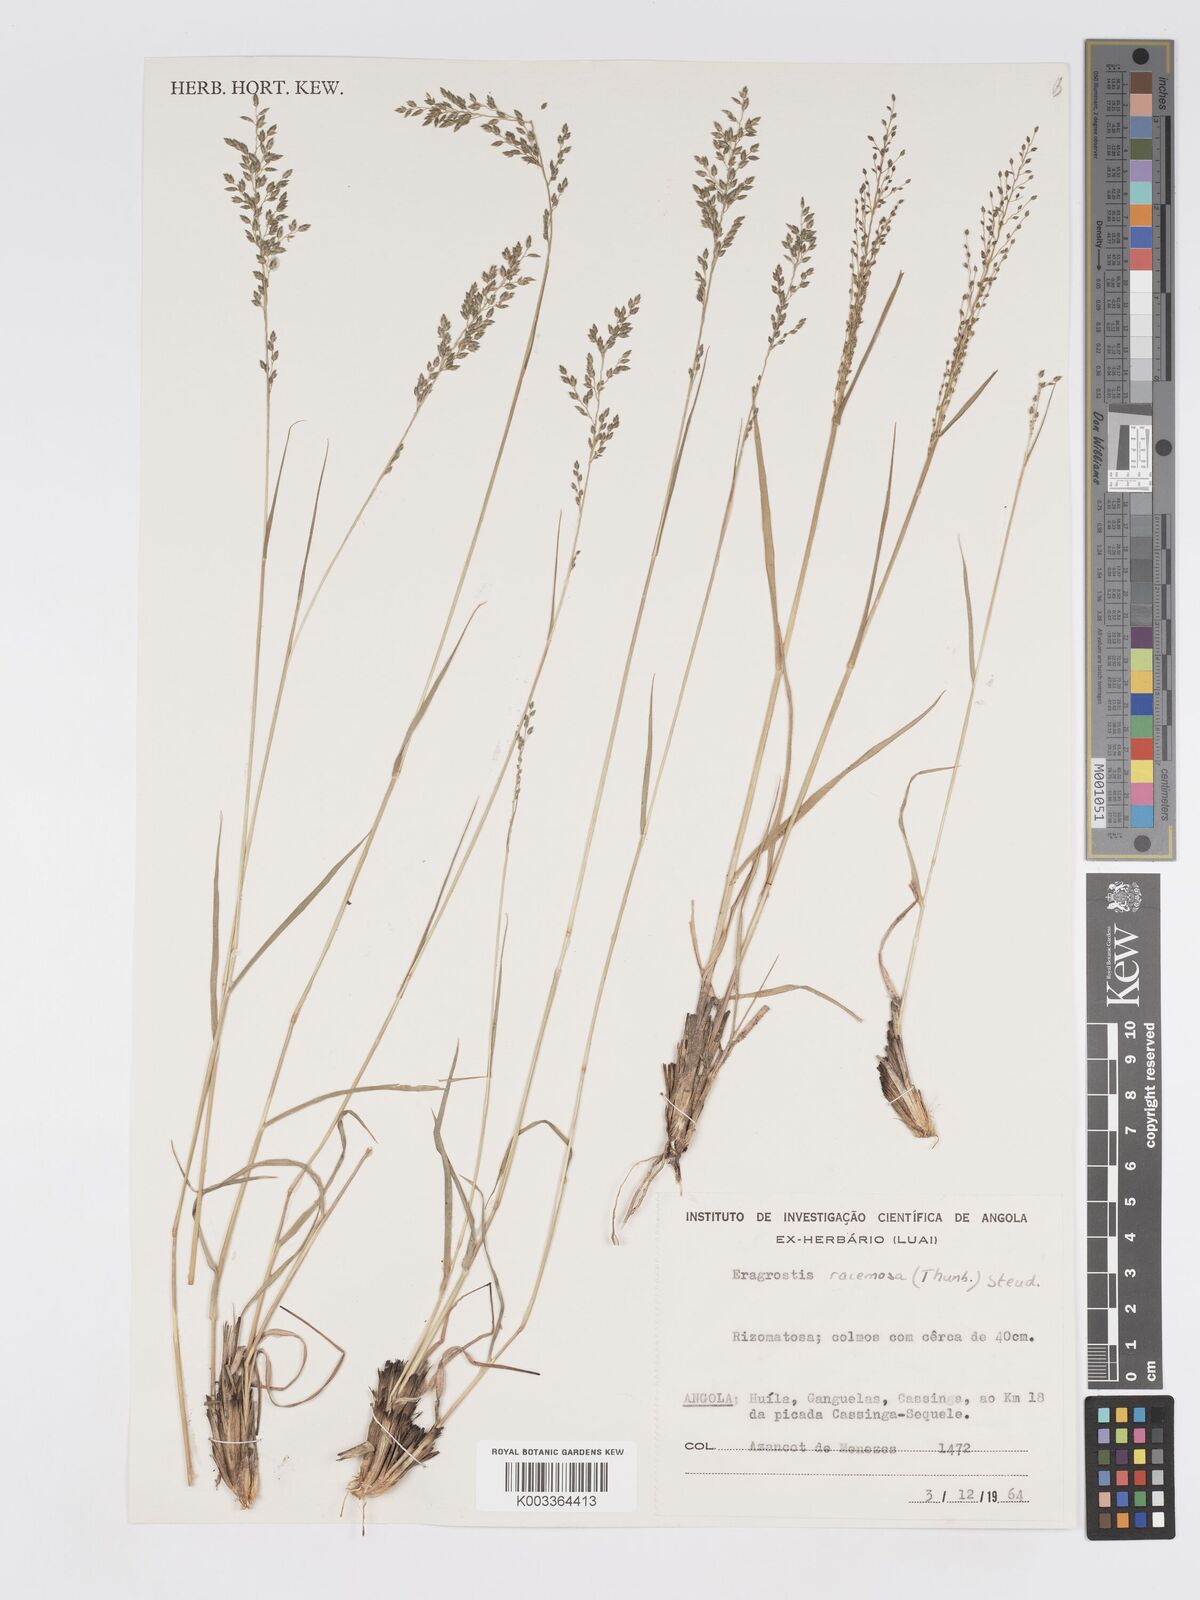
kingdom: Plantae
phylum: Tracheophyta
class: Liliopsida
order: Poales
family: Poaceae
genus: Eragrostis
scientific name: Eragrostis racemosa
